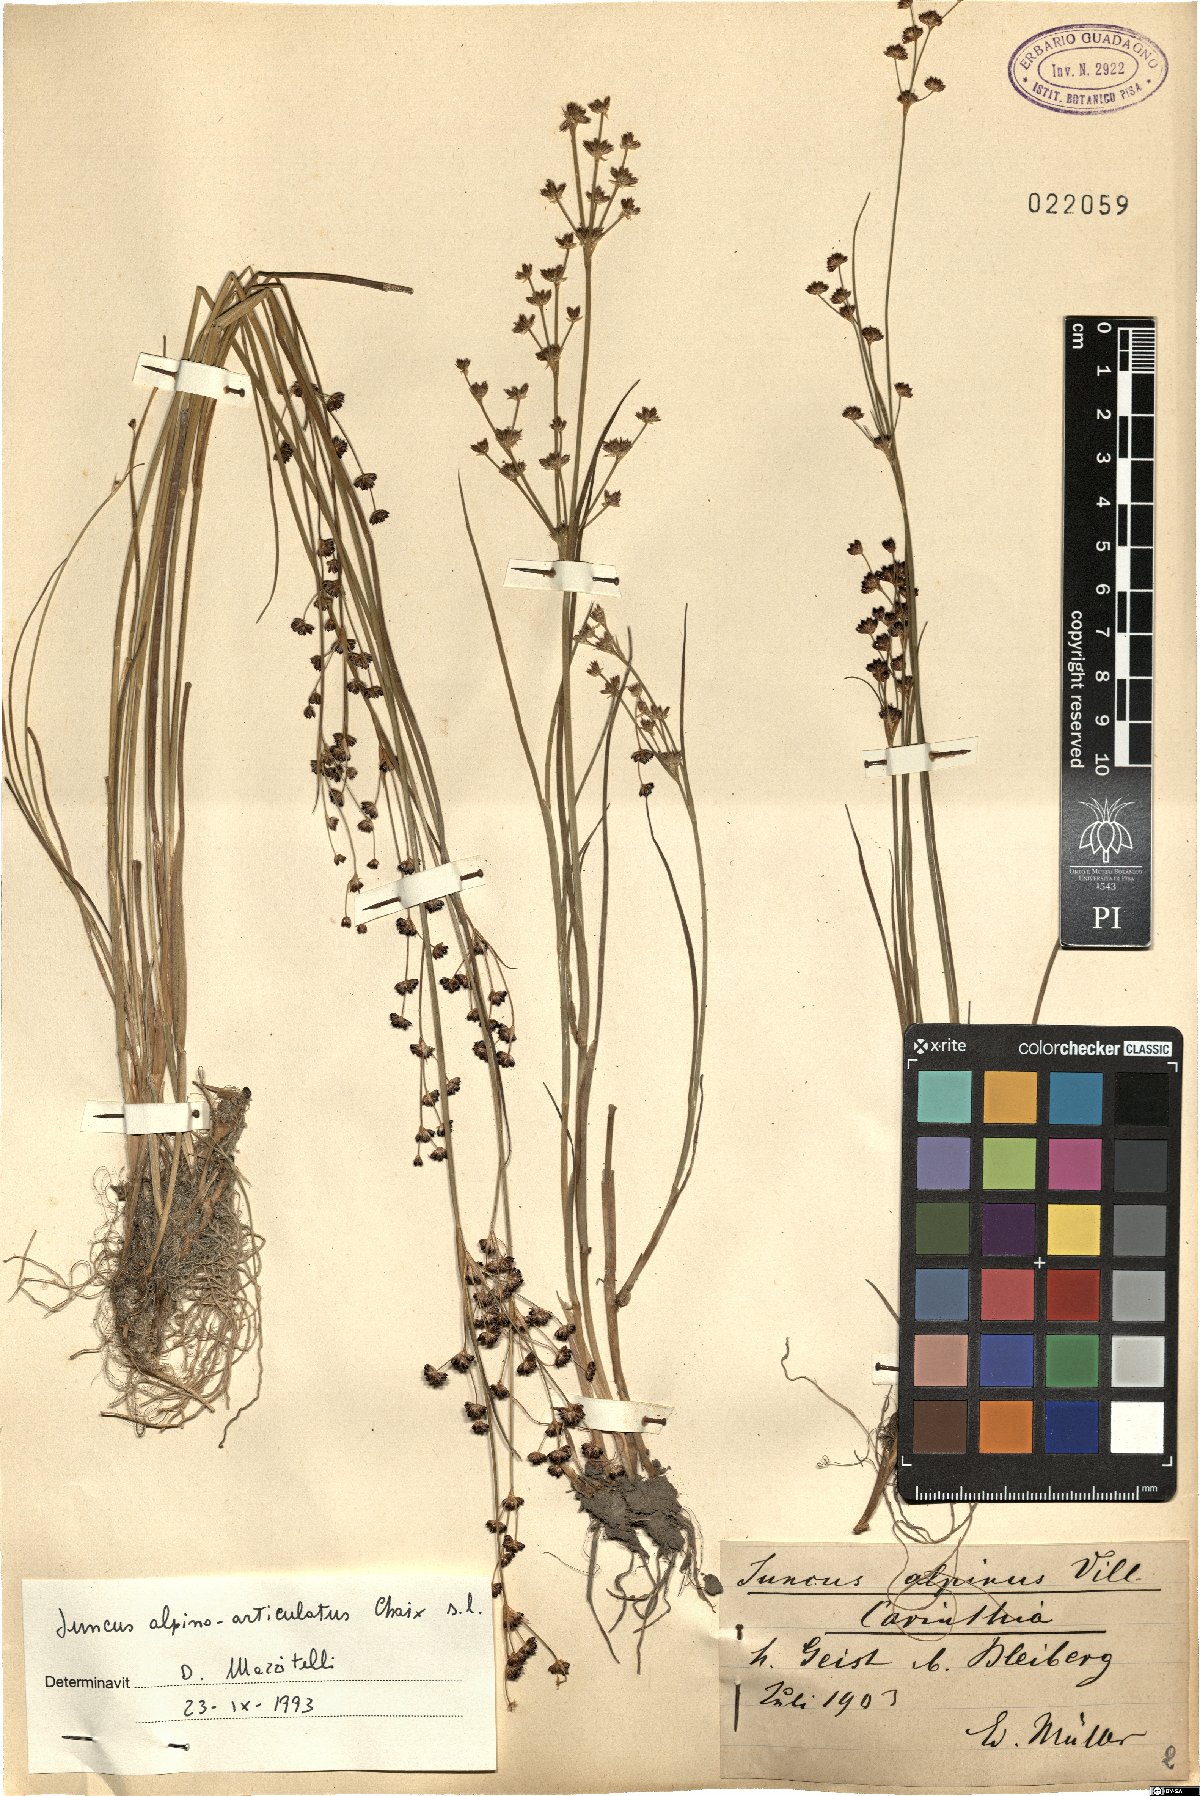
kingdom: Plantae
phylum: Tracheophyta
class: Liliopsida
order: Poales
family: Juncaceae
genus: Juncus
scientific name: Juncus alpinoarticulatus
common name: Alpine rush
